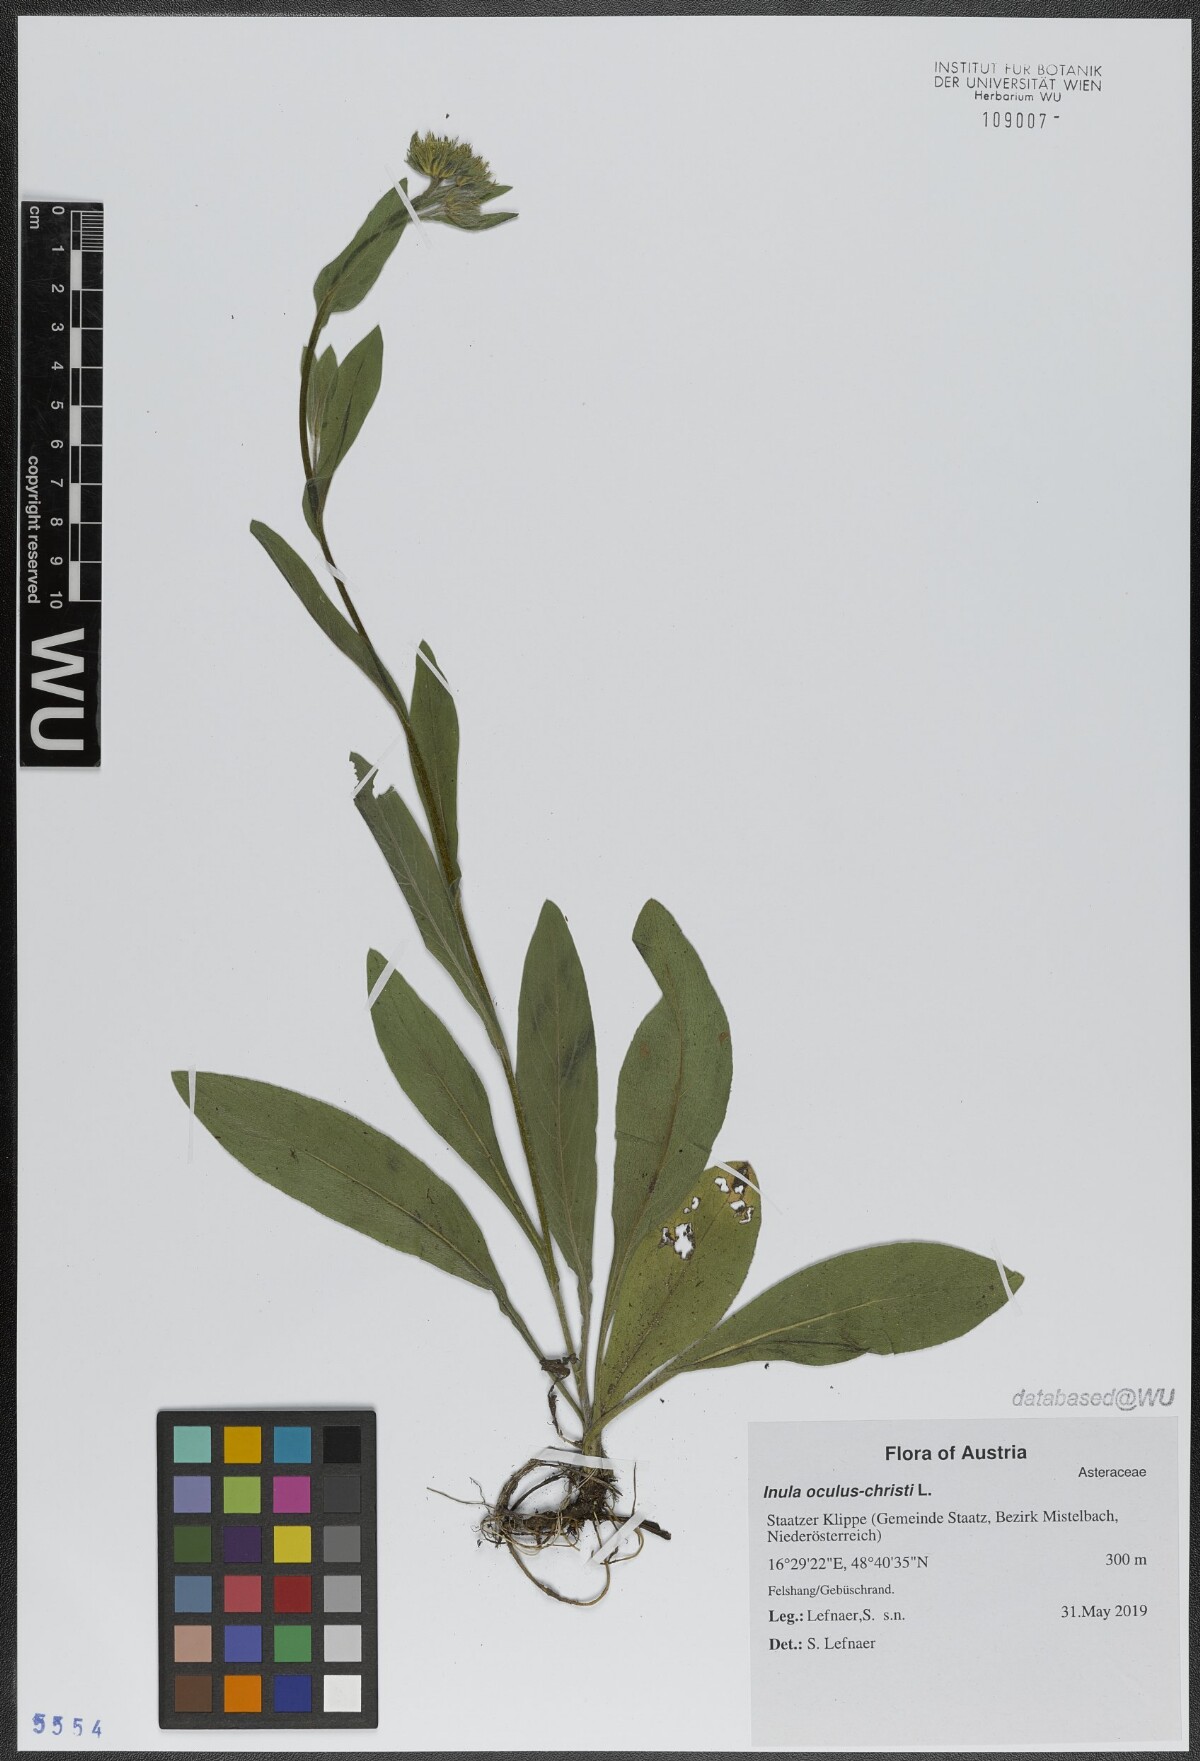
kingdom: Plantae
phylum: Tracheophyta
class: Magnoliopsida
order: Asterales
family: Asteraceae
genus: Pentanema
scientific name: Pentanema oculus-christi
